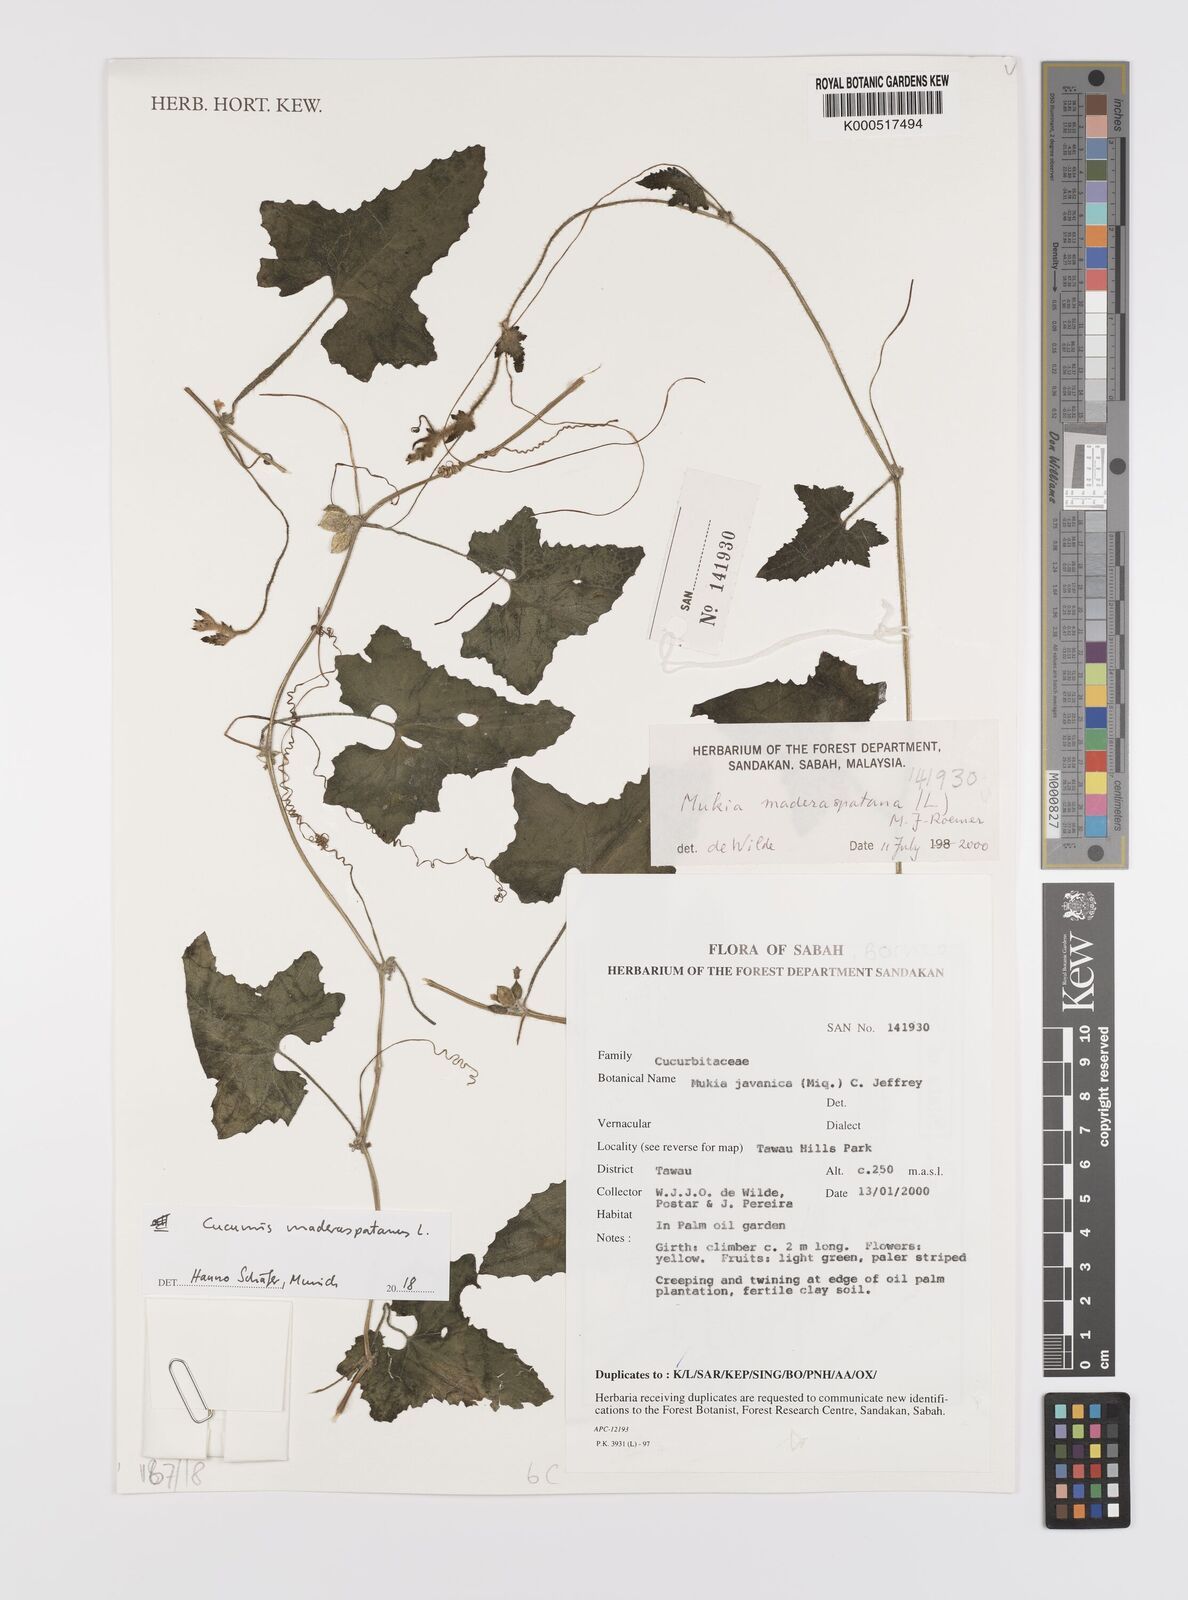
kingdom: Plantae
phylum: Tracheophyta
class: Magnoliopsida
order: Cucurbitales
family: Cucurbitaceae
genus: Cucumis
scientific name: Cucumis maderaspatanus
